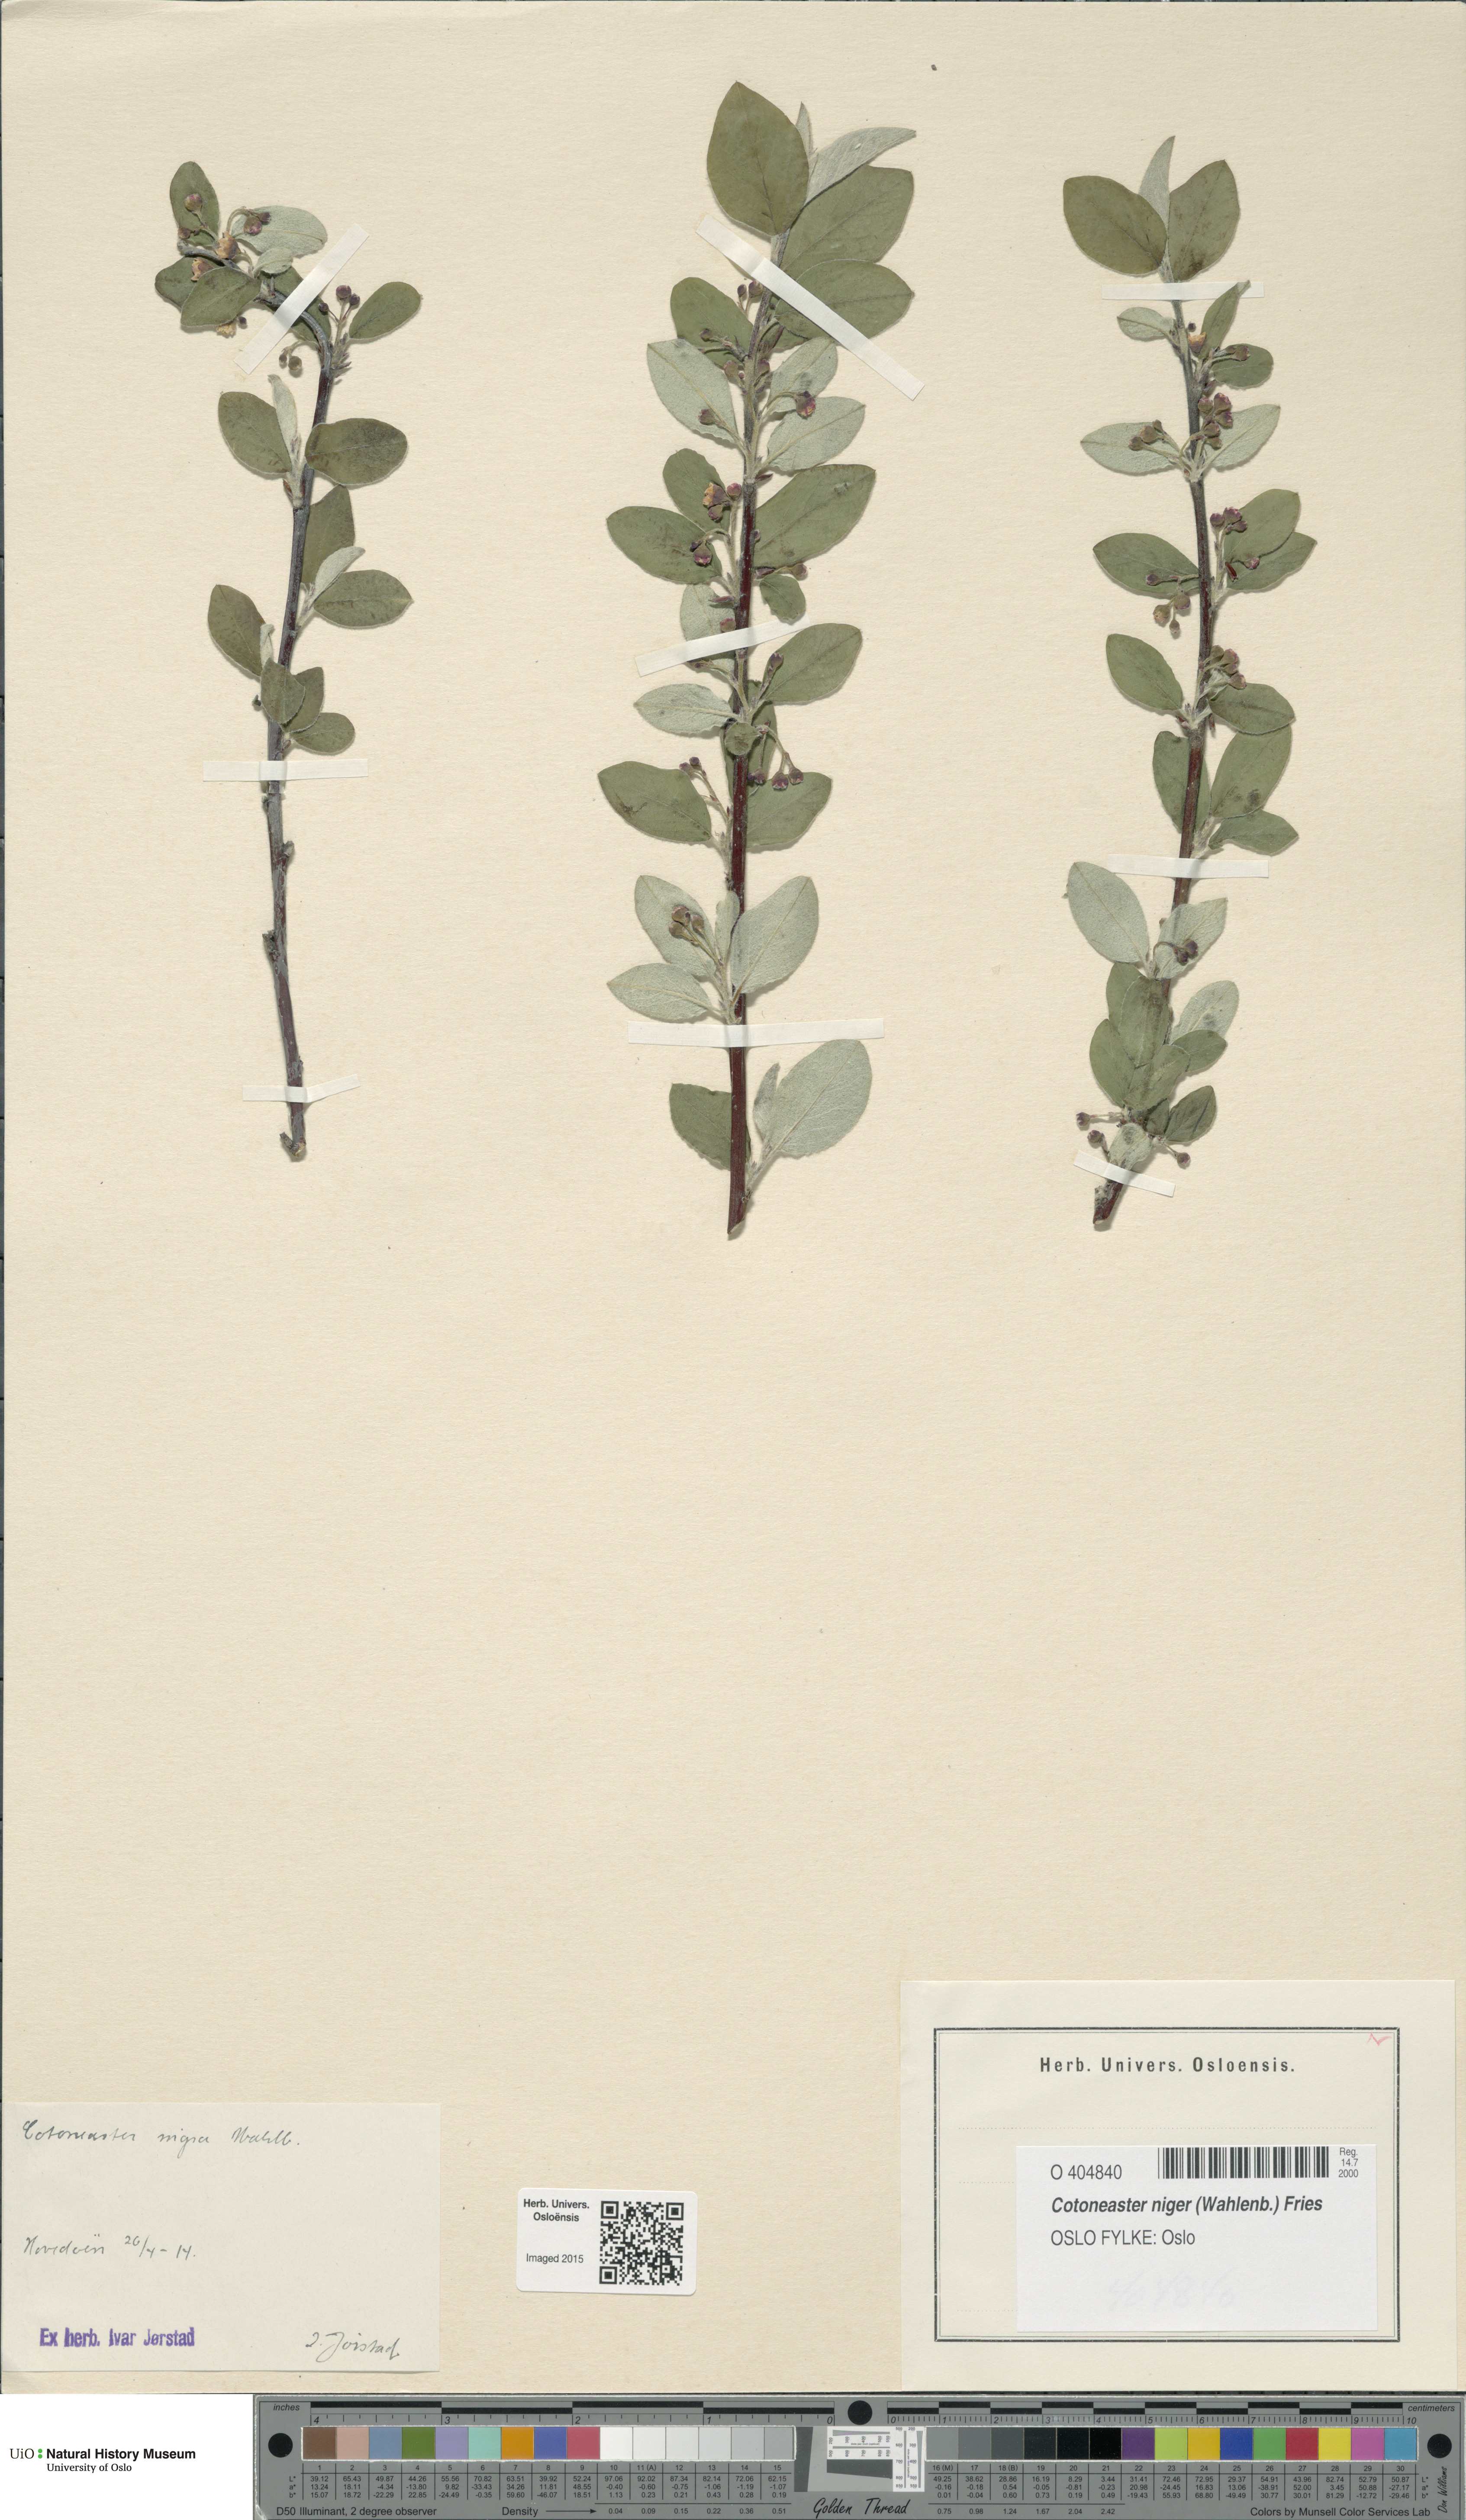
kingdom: Plantae
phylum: Tracheophyta
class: Magnoliopsida
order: Rosales
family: Rosaceae
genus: Cotoneaster
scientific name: Cotoneaster niger
